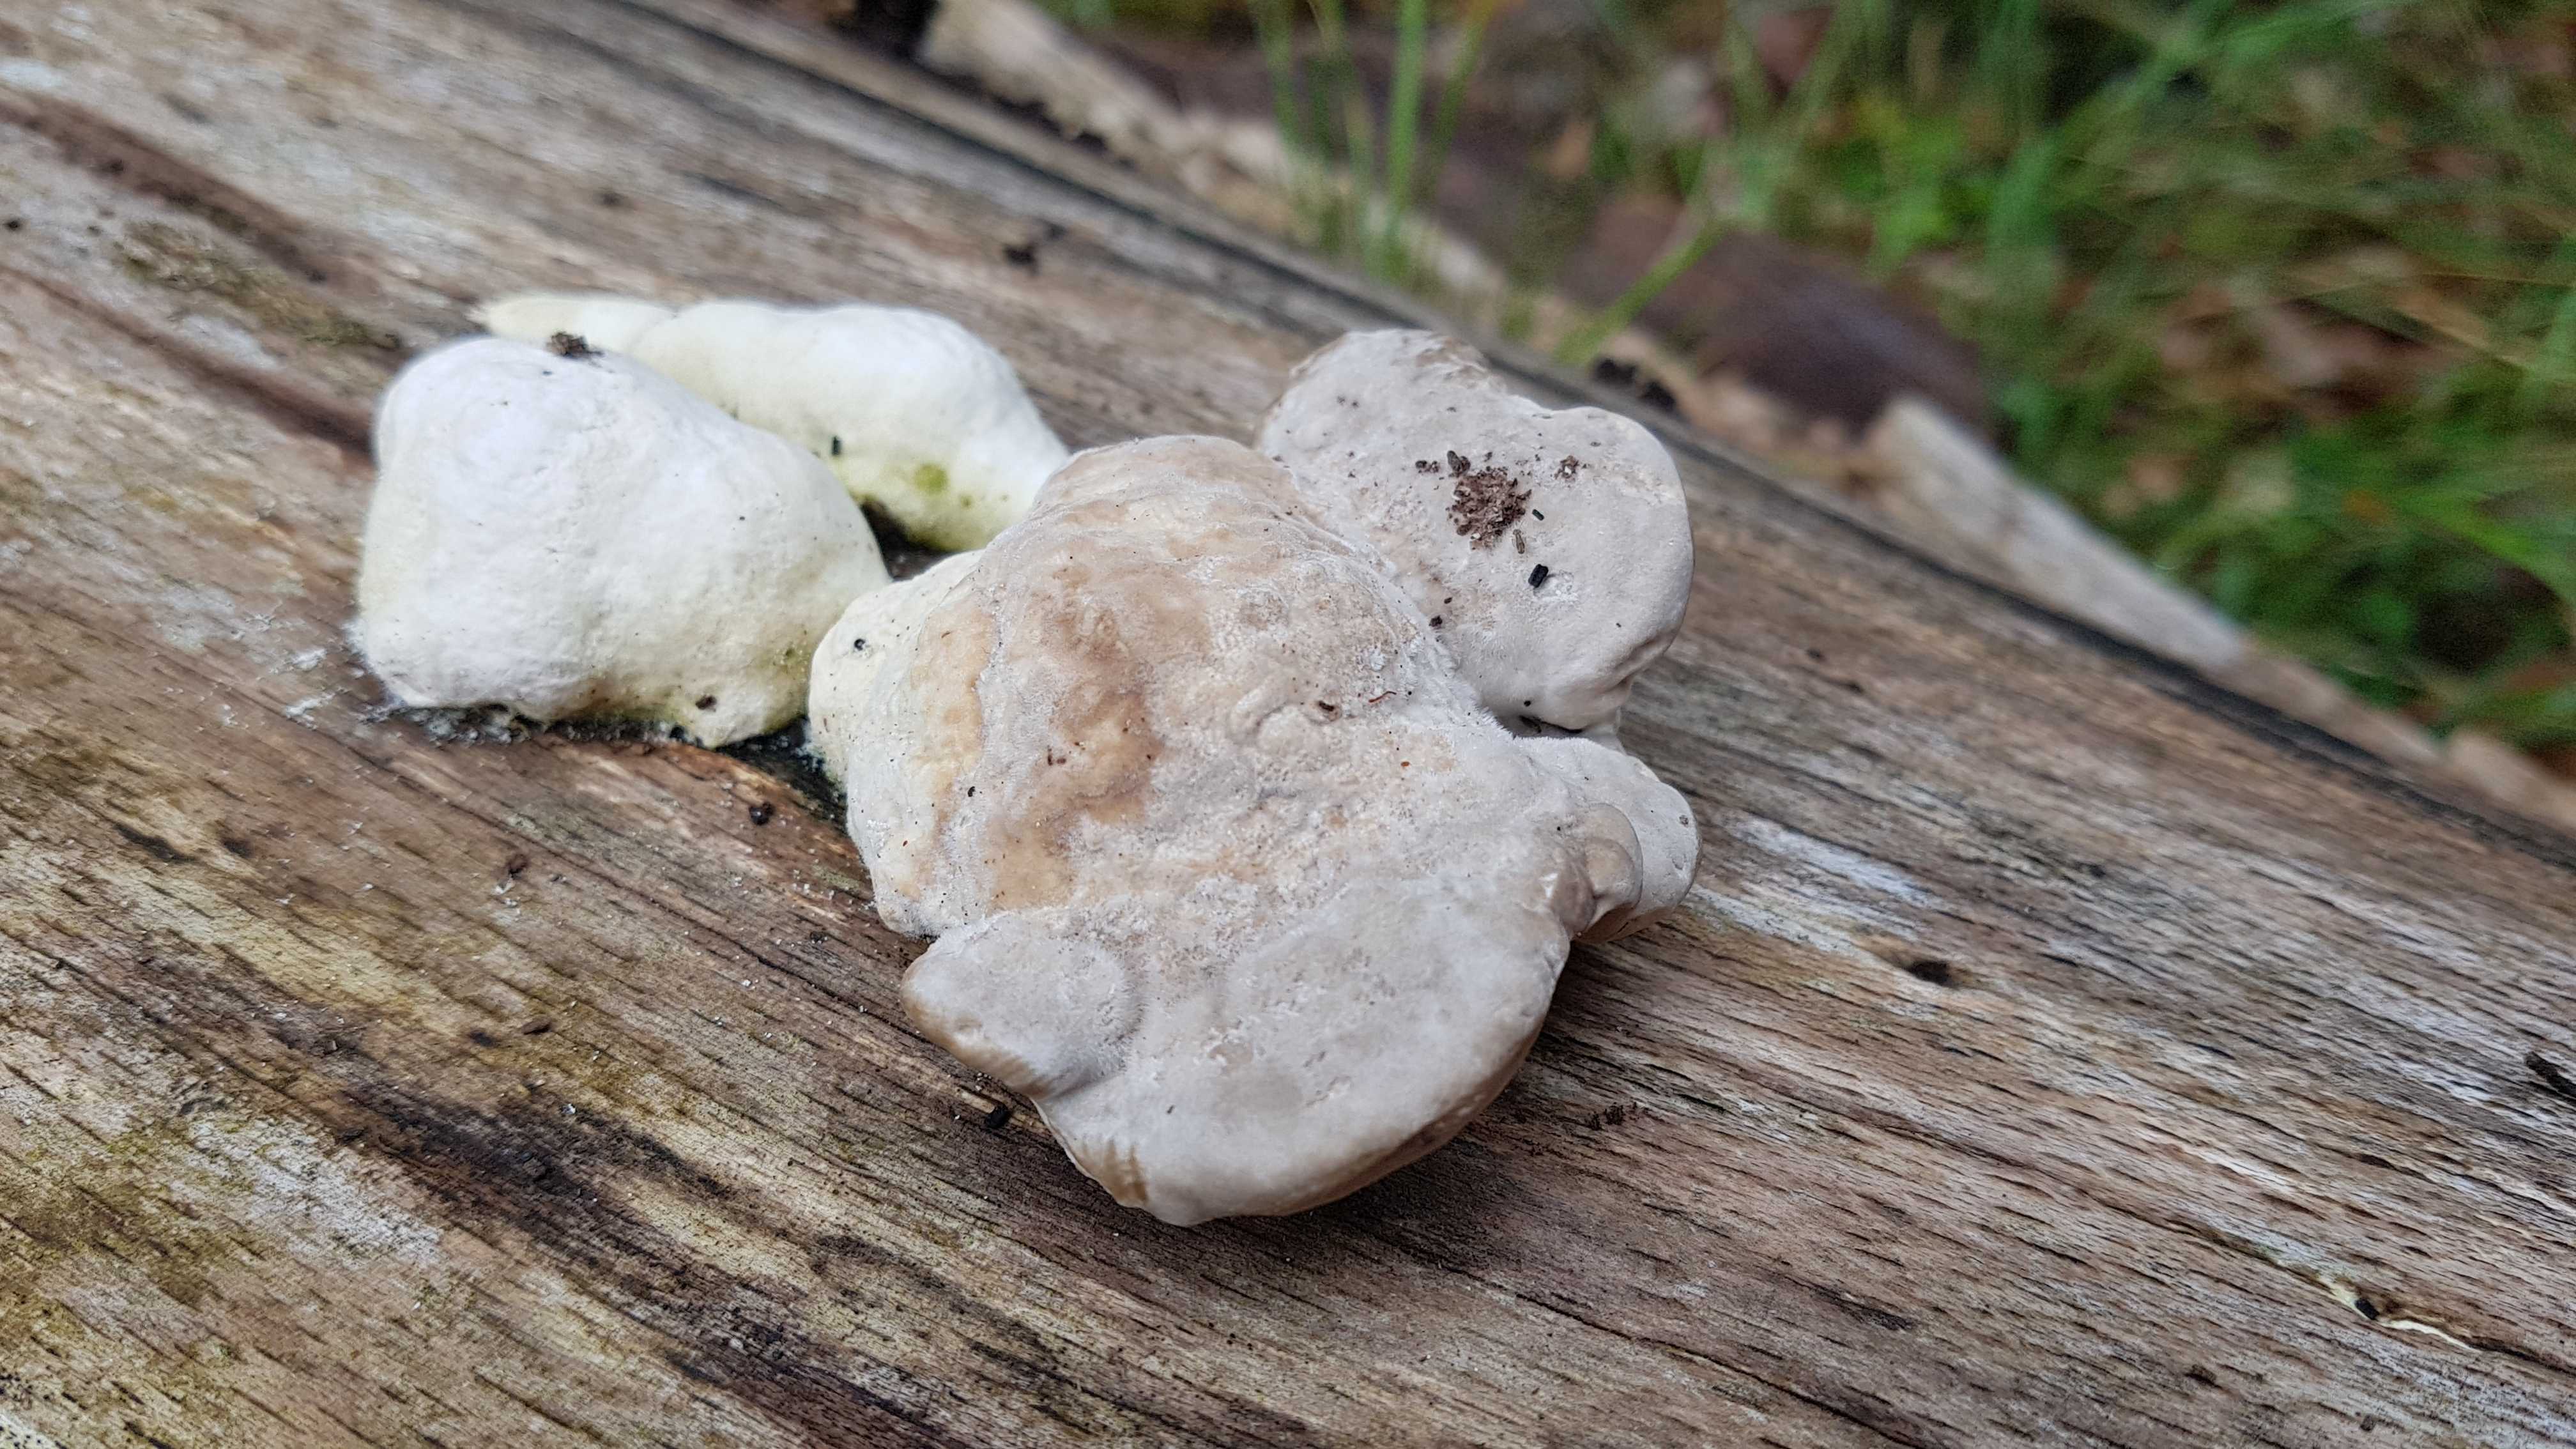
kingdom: Fungi
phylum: Basidiomycota
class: Agaricomycetes
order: Polyporales
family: Polyporaceae
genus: Trametes
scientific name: Trametes gibbosa
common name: puklet læderporesvamp
